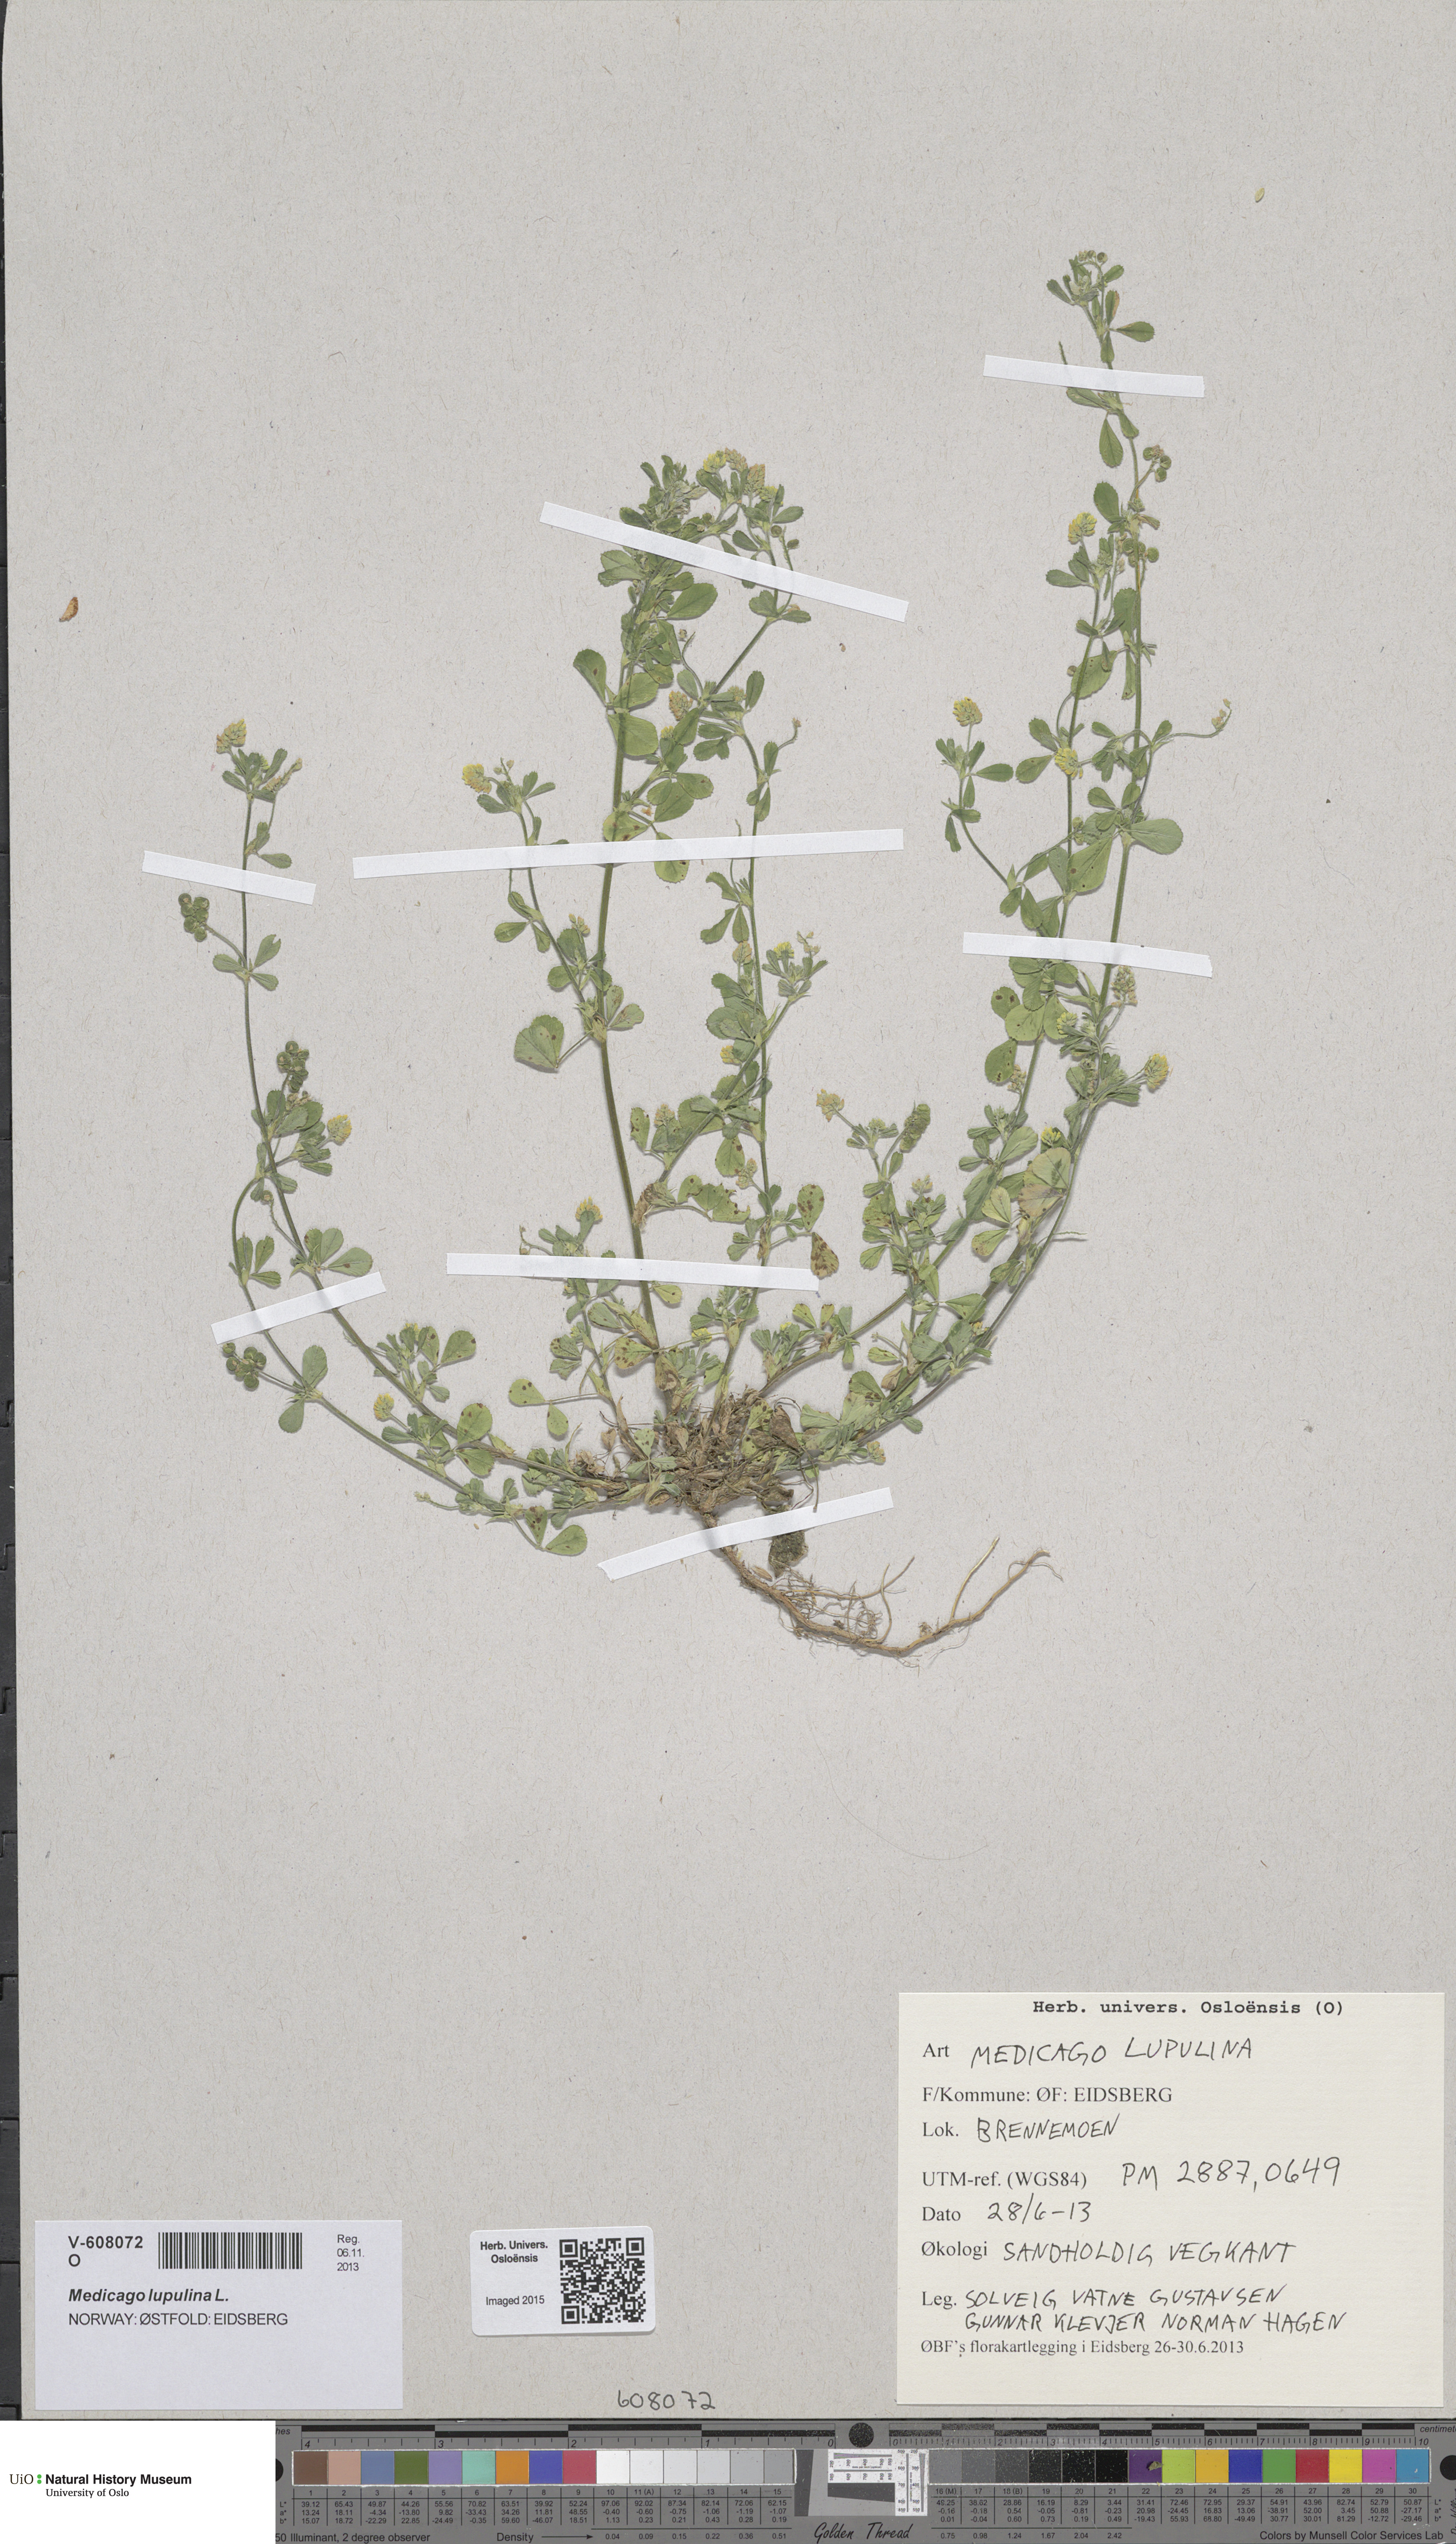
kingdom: Plantae
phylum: Tracheophyta
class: Magnoliopsida
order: Fabales
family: Fabaceae
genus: Medicago
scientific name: Medicago lupulina
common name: Black medick
